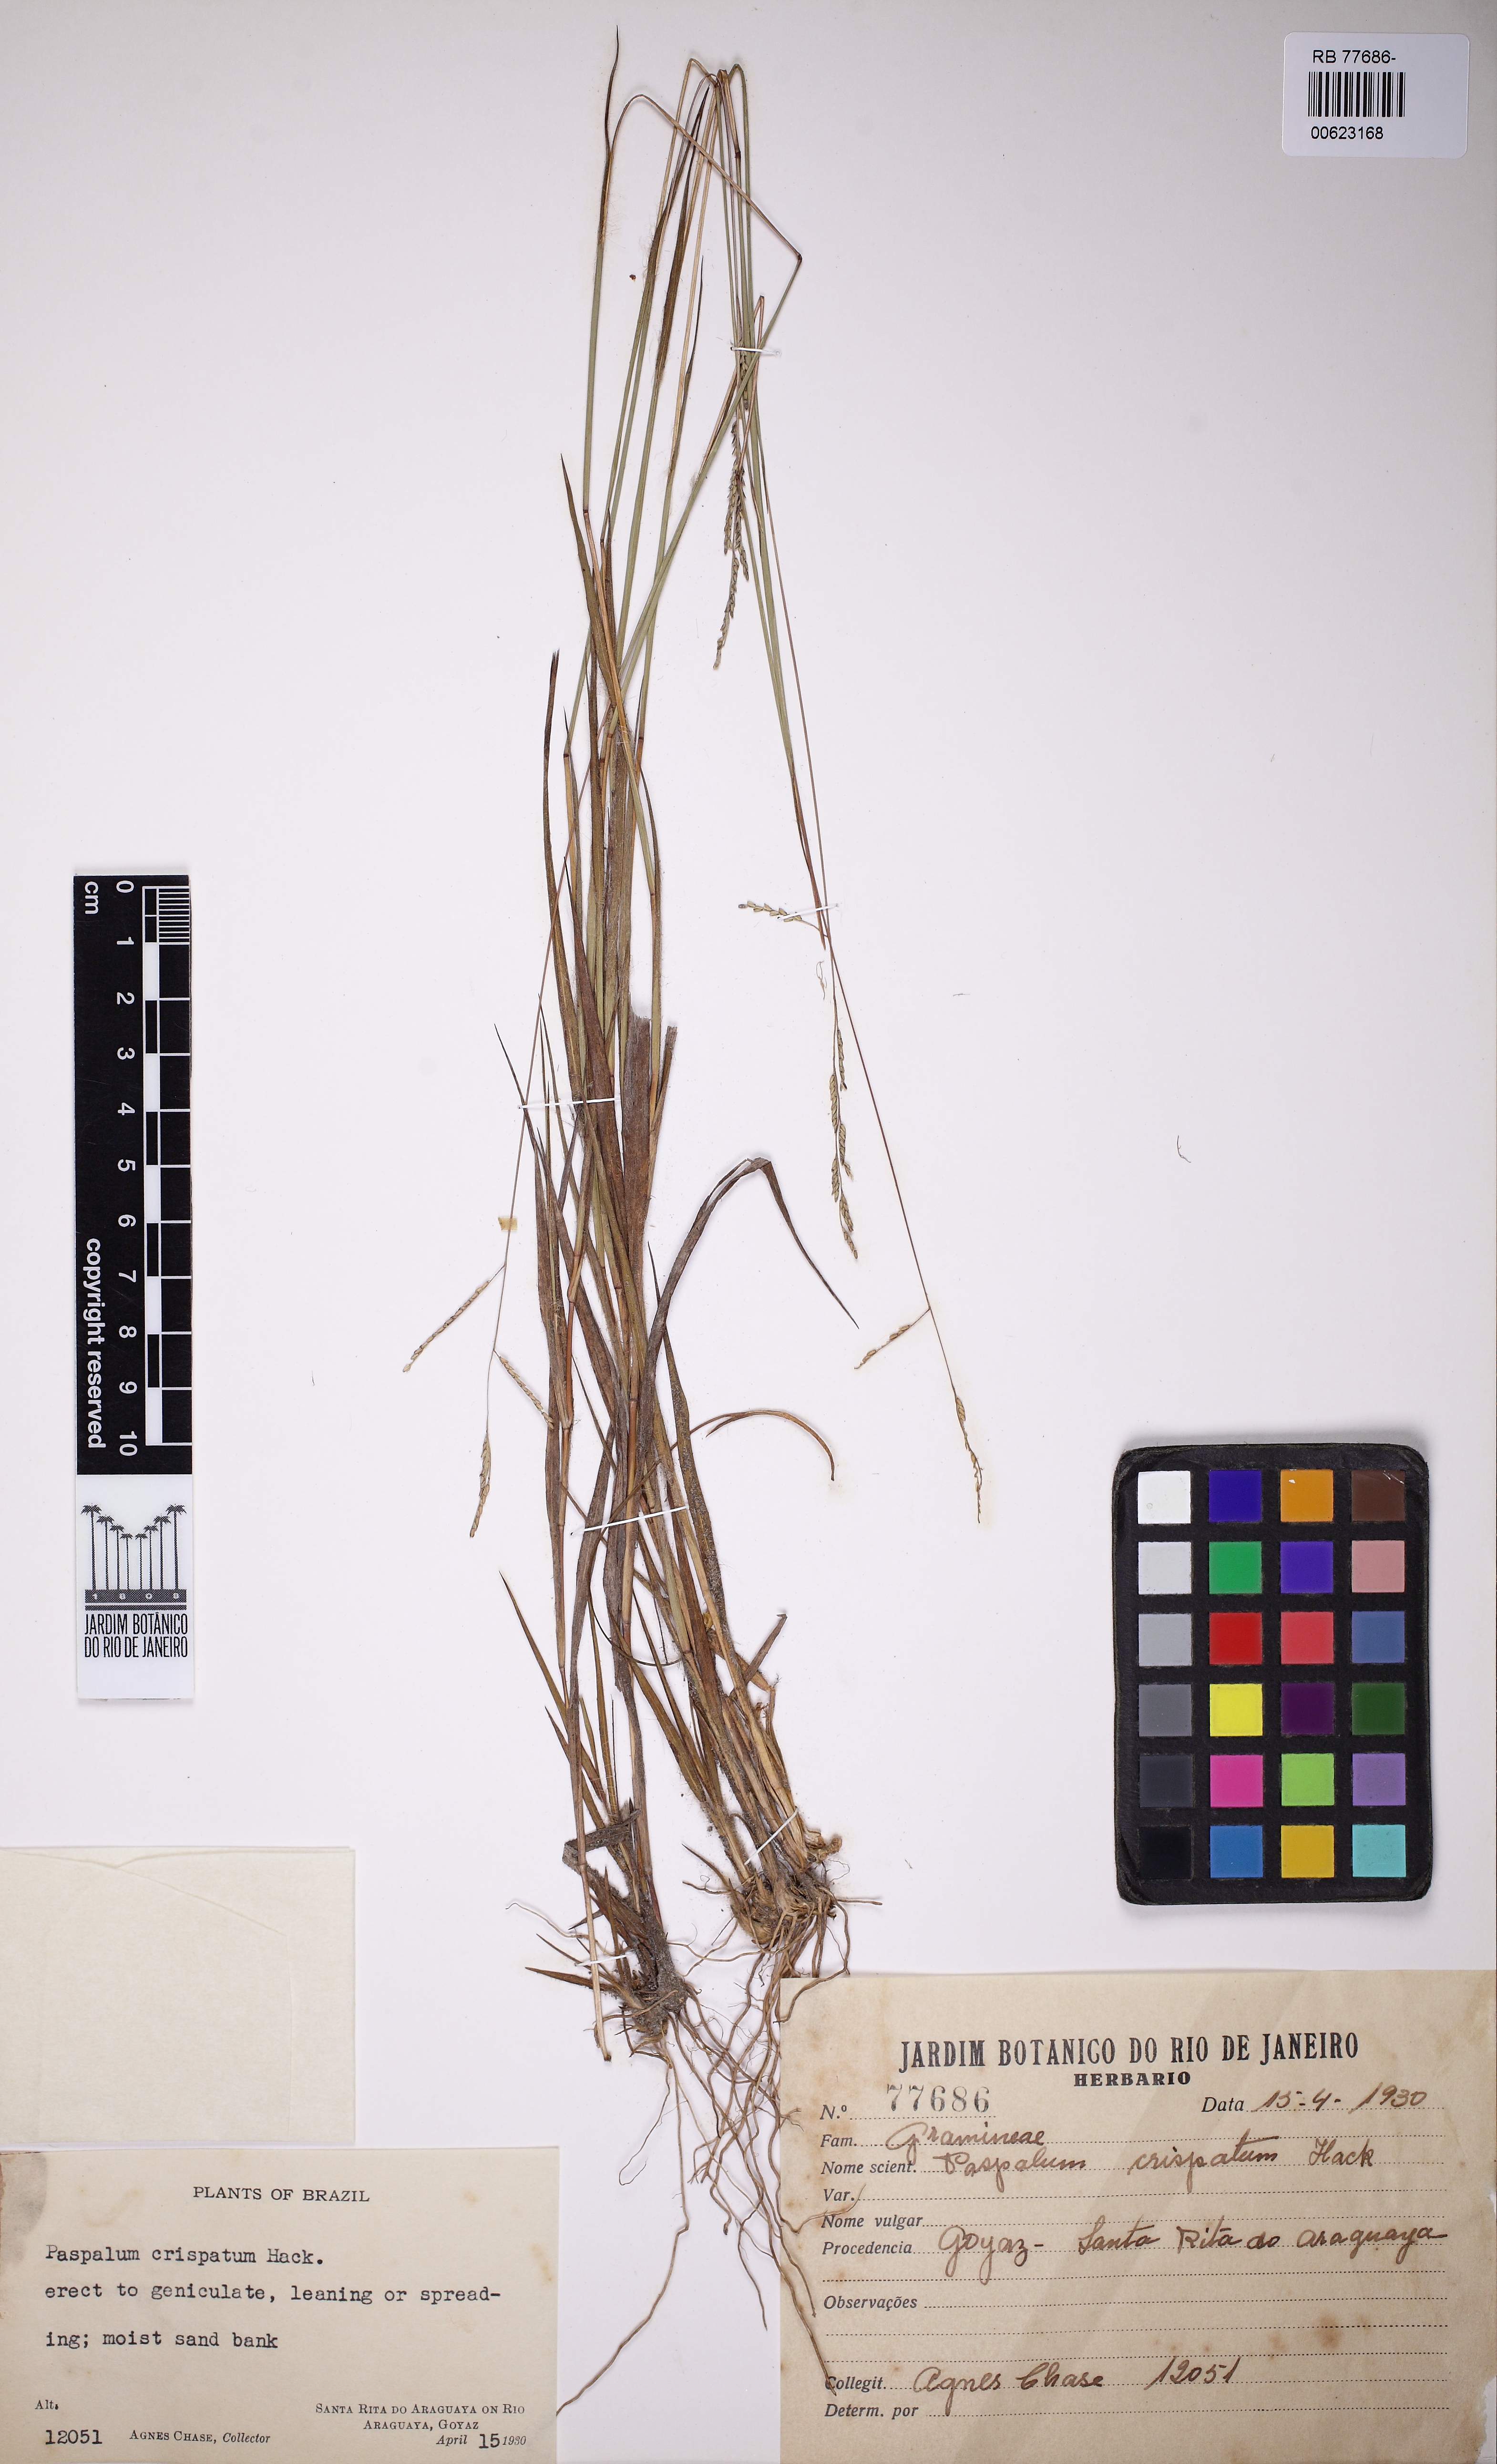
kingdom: Plantae
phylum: Tracheophyta
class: Liliopsida
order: Poales
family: Poaceae
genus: Paspalum
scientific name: Paspalum crispatum
